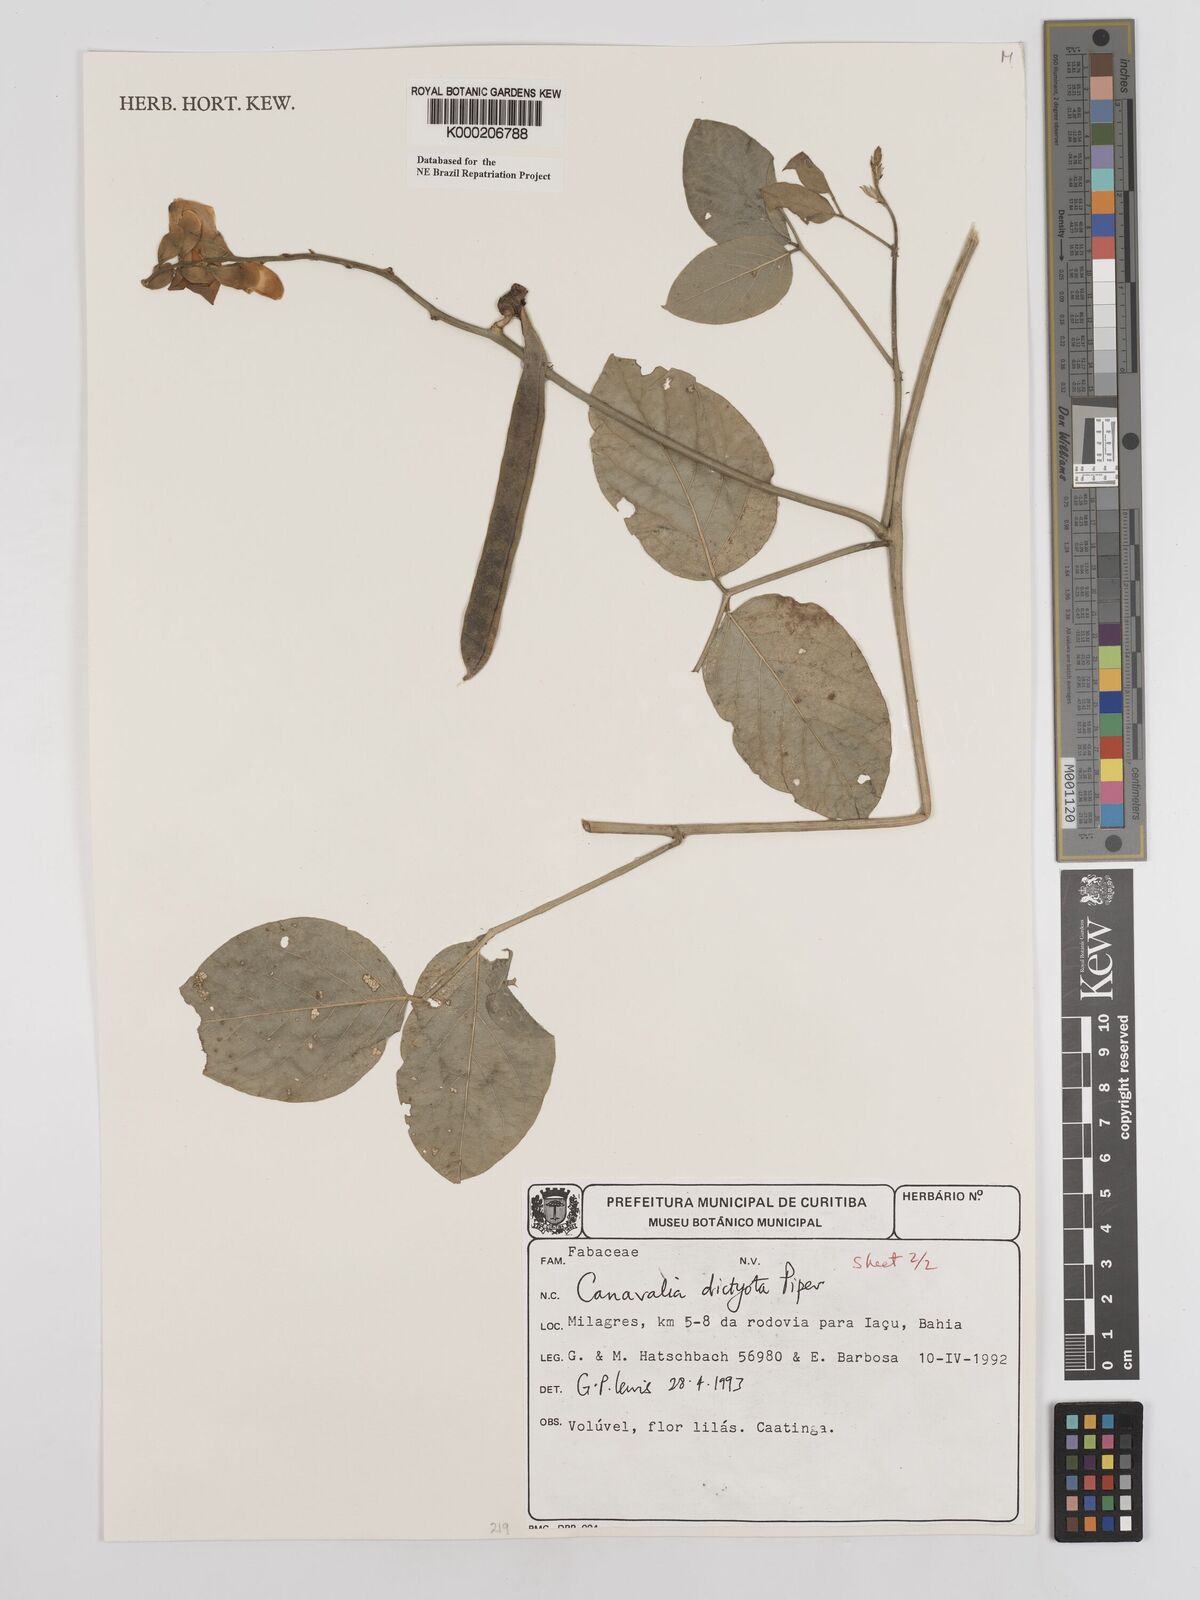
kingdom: Plantae
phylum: Tracheophyta
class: Magnoliopsida
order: Fabales
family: Fabaceae
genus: Canavalia
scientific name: Canavalia brasiliensis
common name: Barbicou-bean
